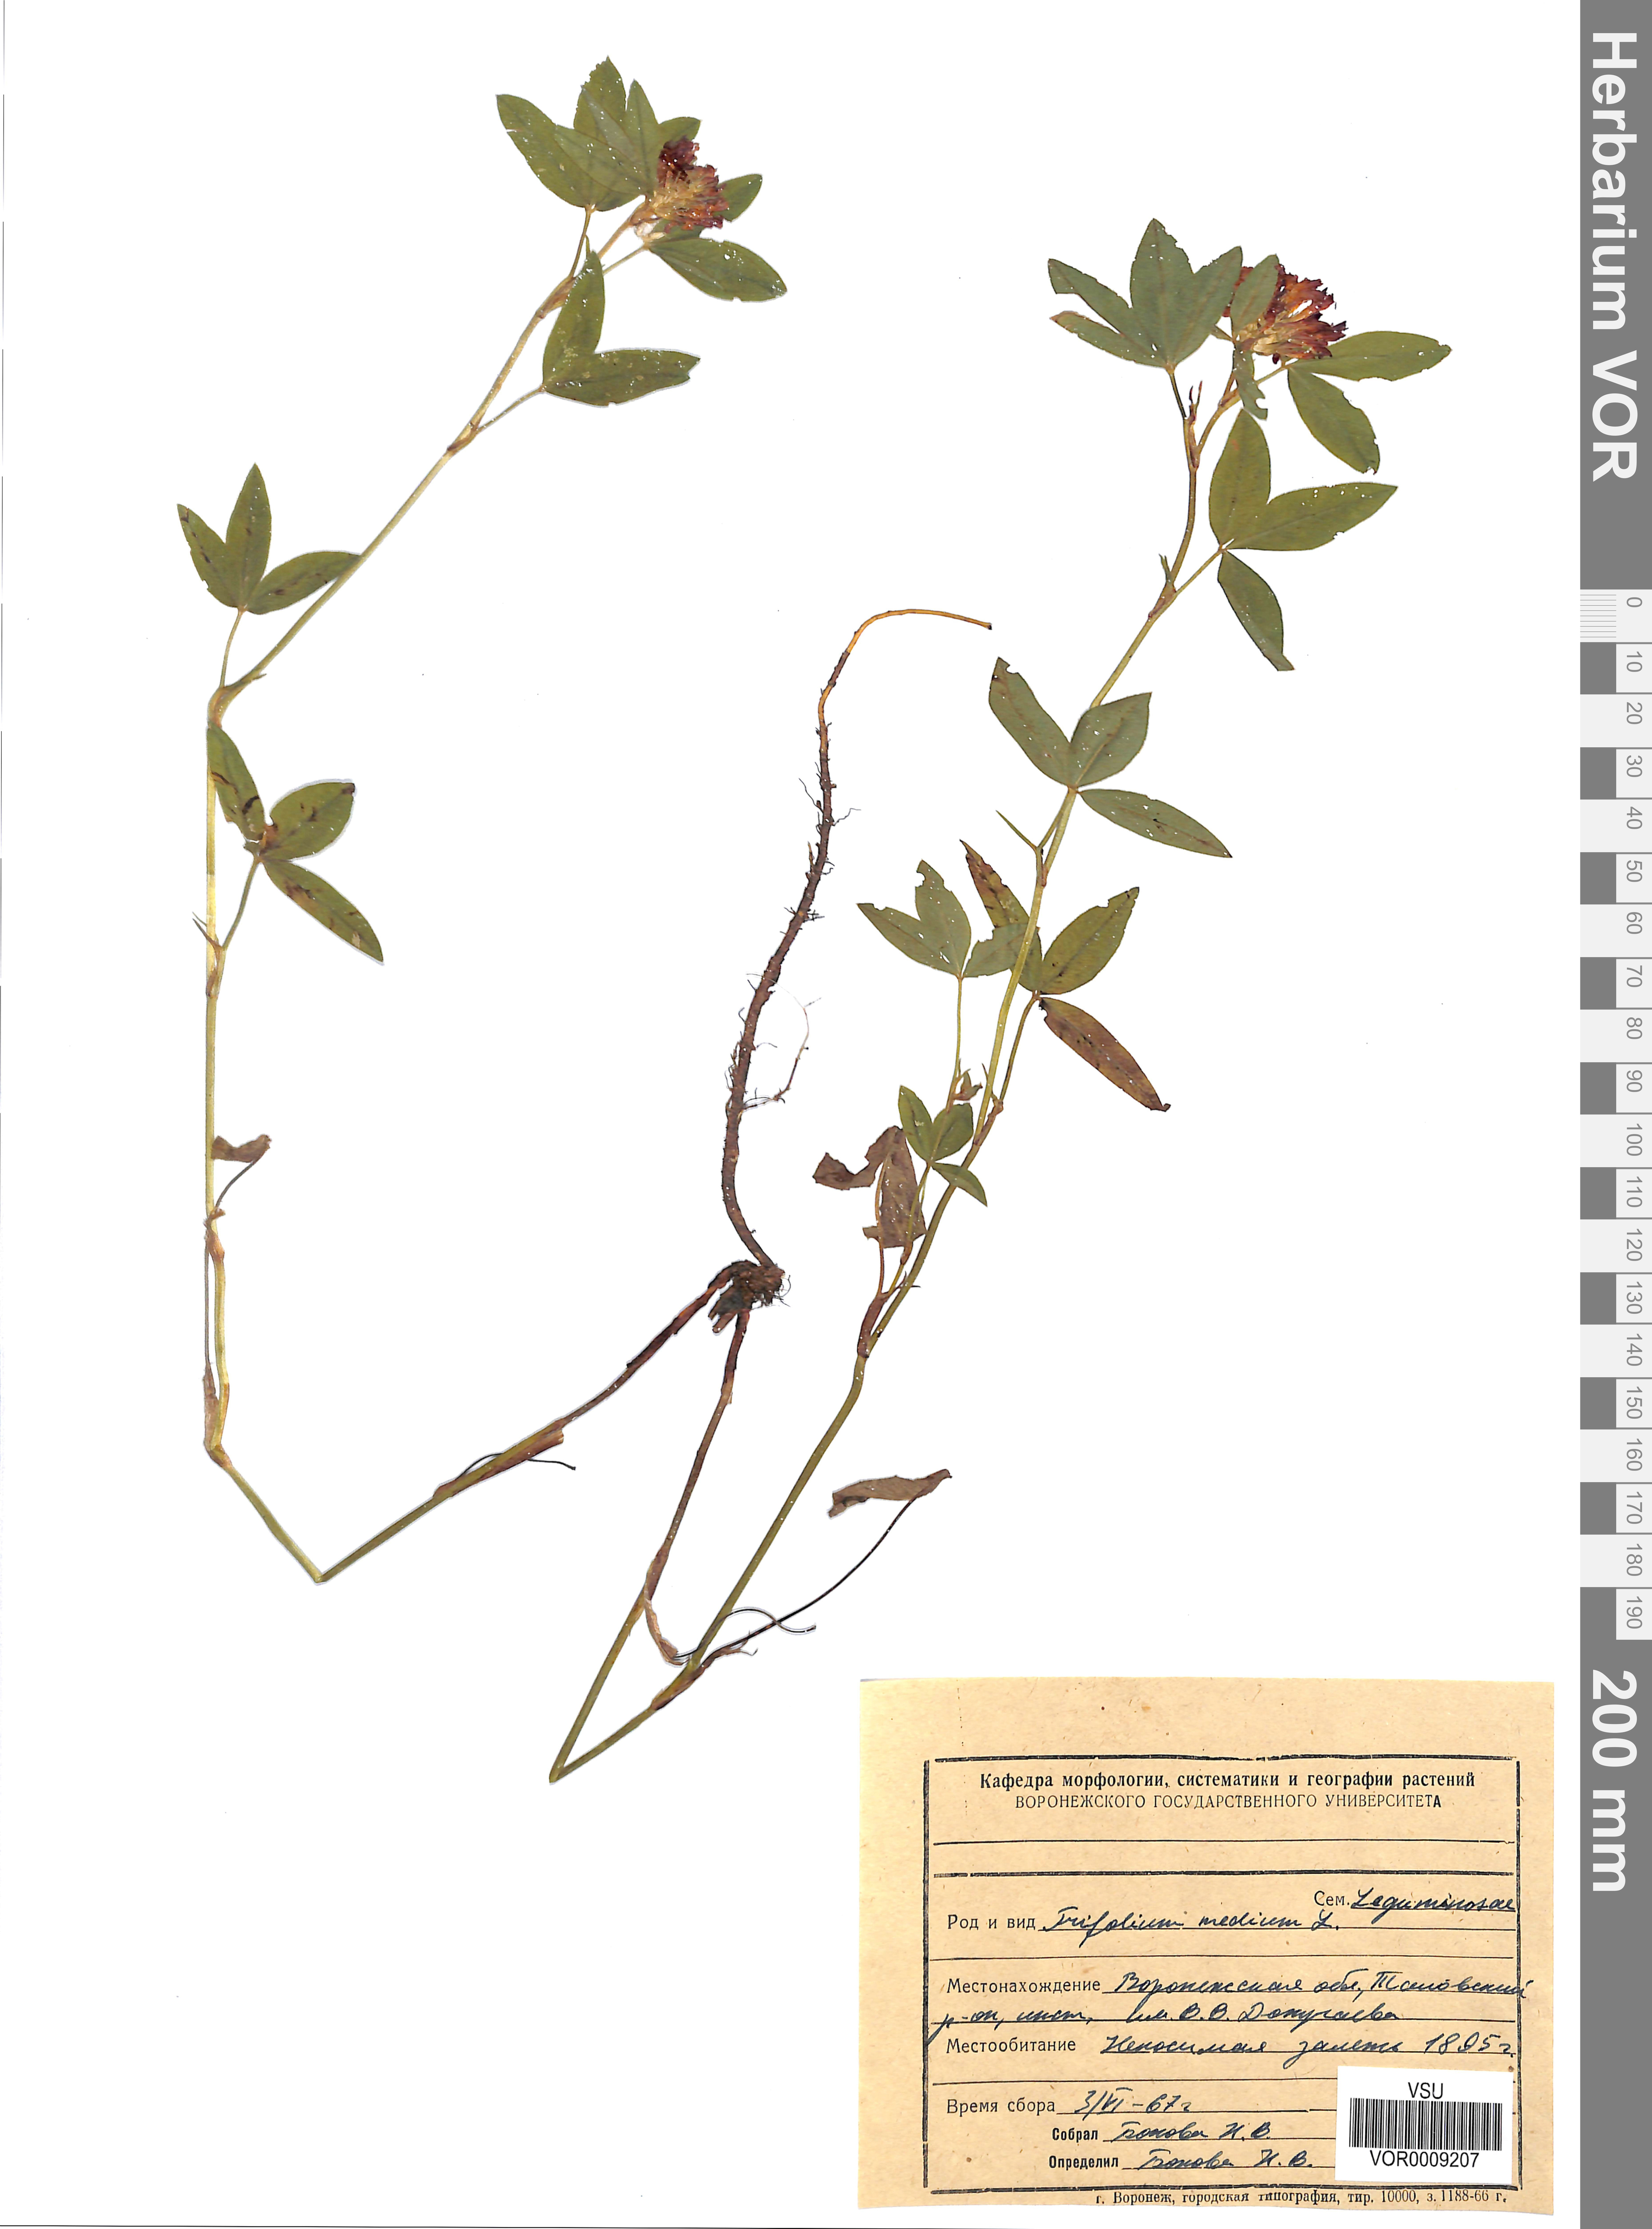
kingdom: Plantae
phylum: Tracheophyta
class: Magnoliopsida
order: Fabales
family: Fabaceae
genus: Trifolium
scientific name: Trifolium medium
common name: Zigzag clover
